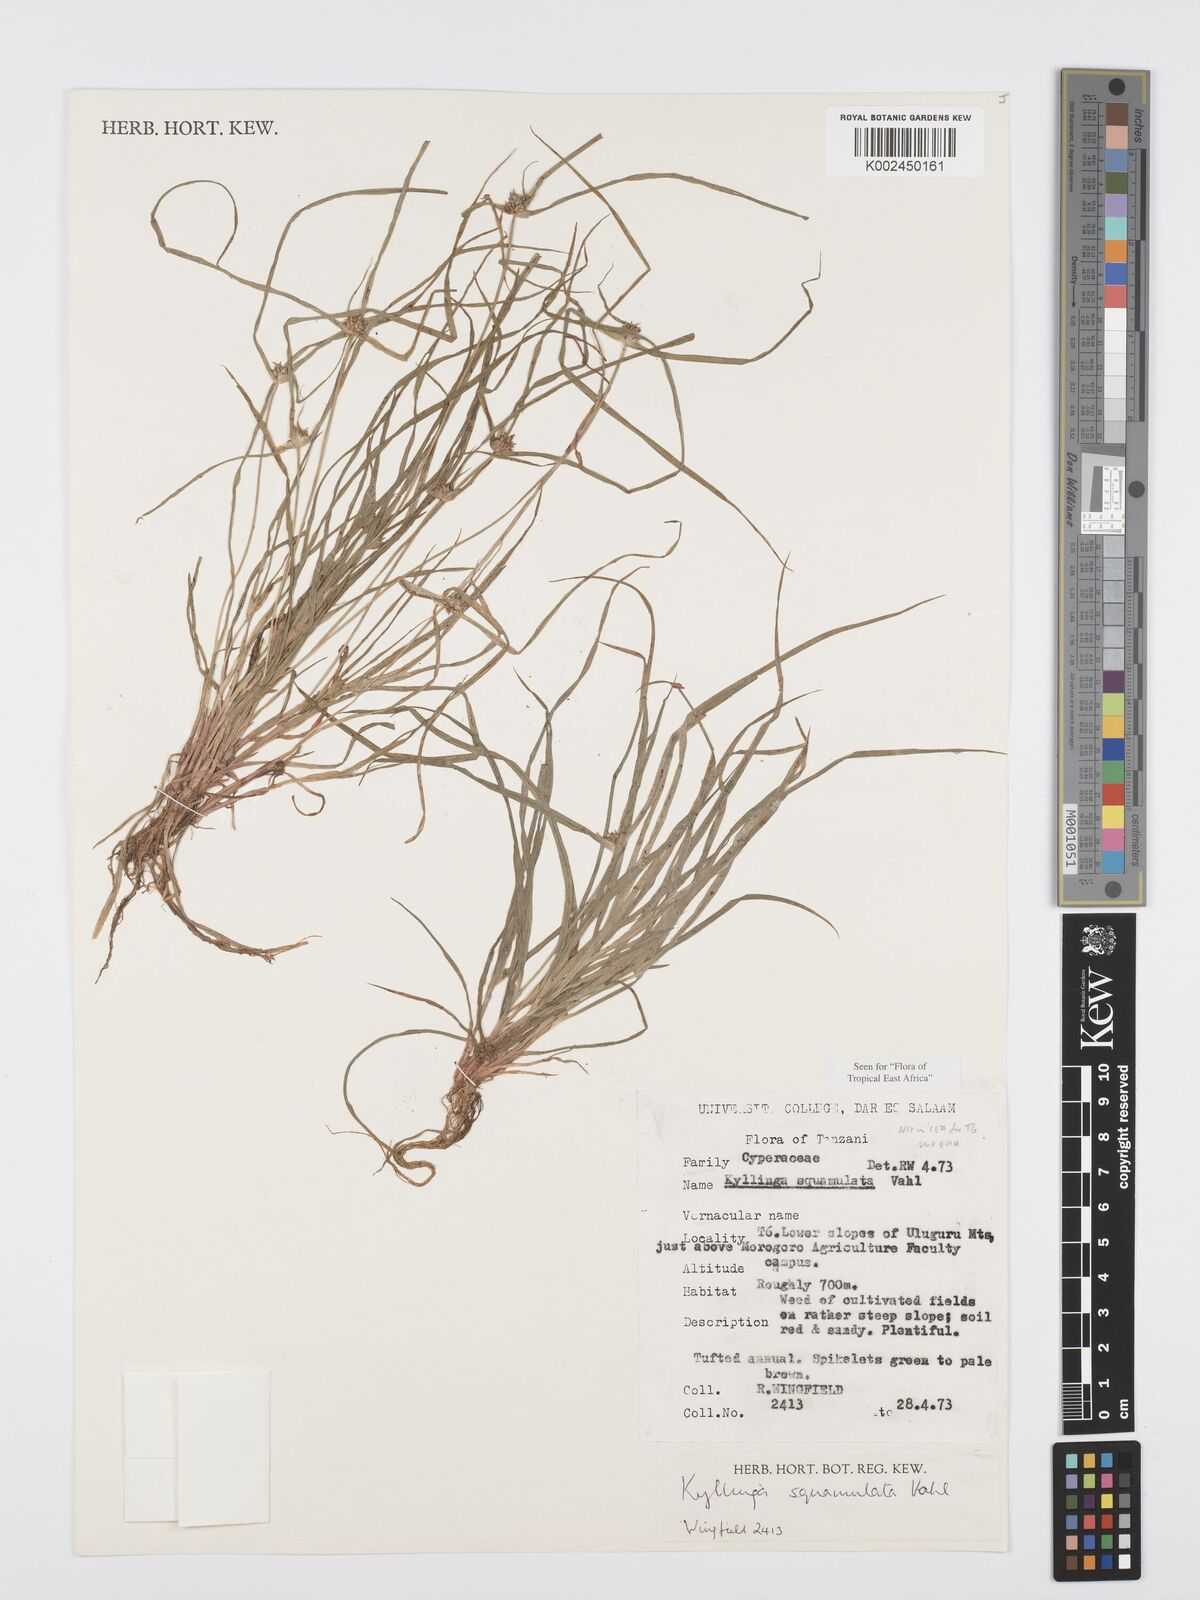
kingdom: Plantae
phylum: Tracheophyta
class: Liliopsida
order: Poales
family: Cyperaceae
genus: Cyperus
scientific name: Cyperus distans
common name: Slender cyperus
